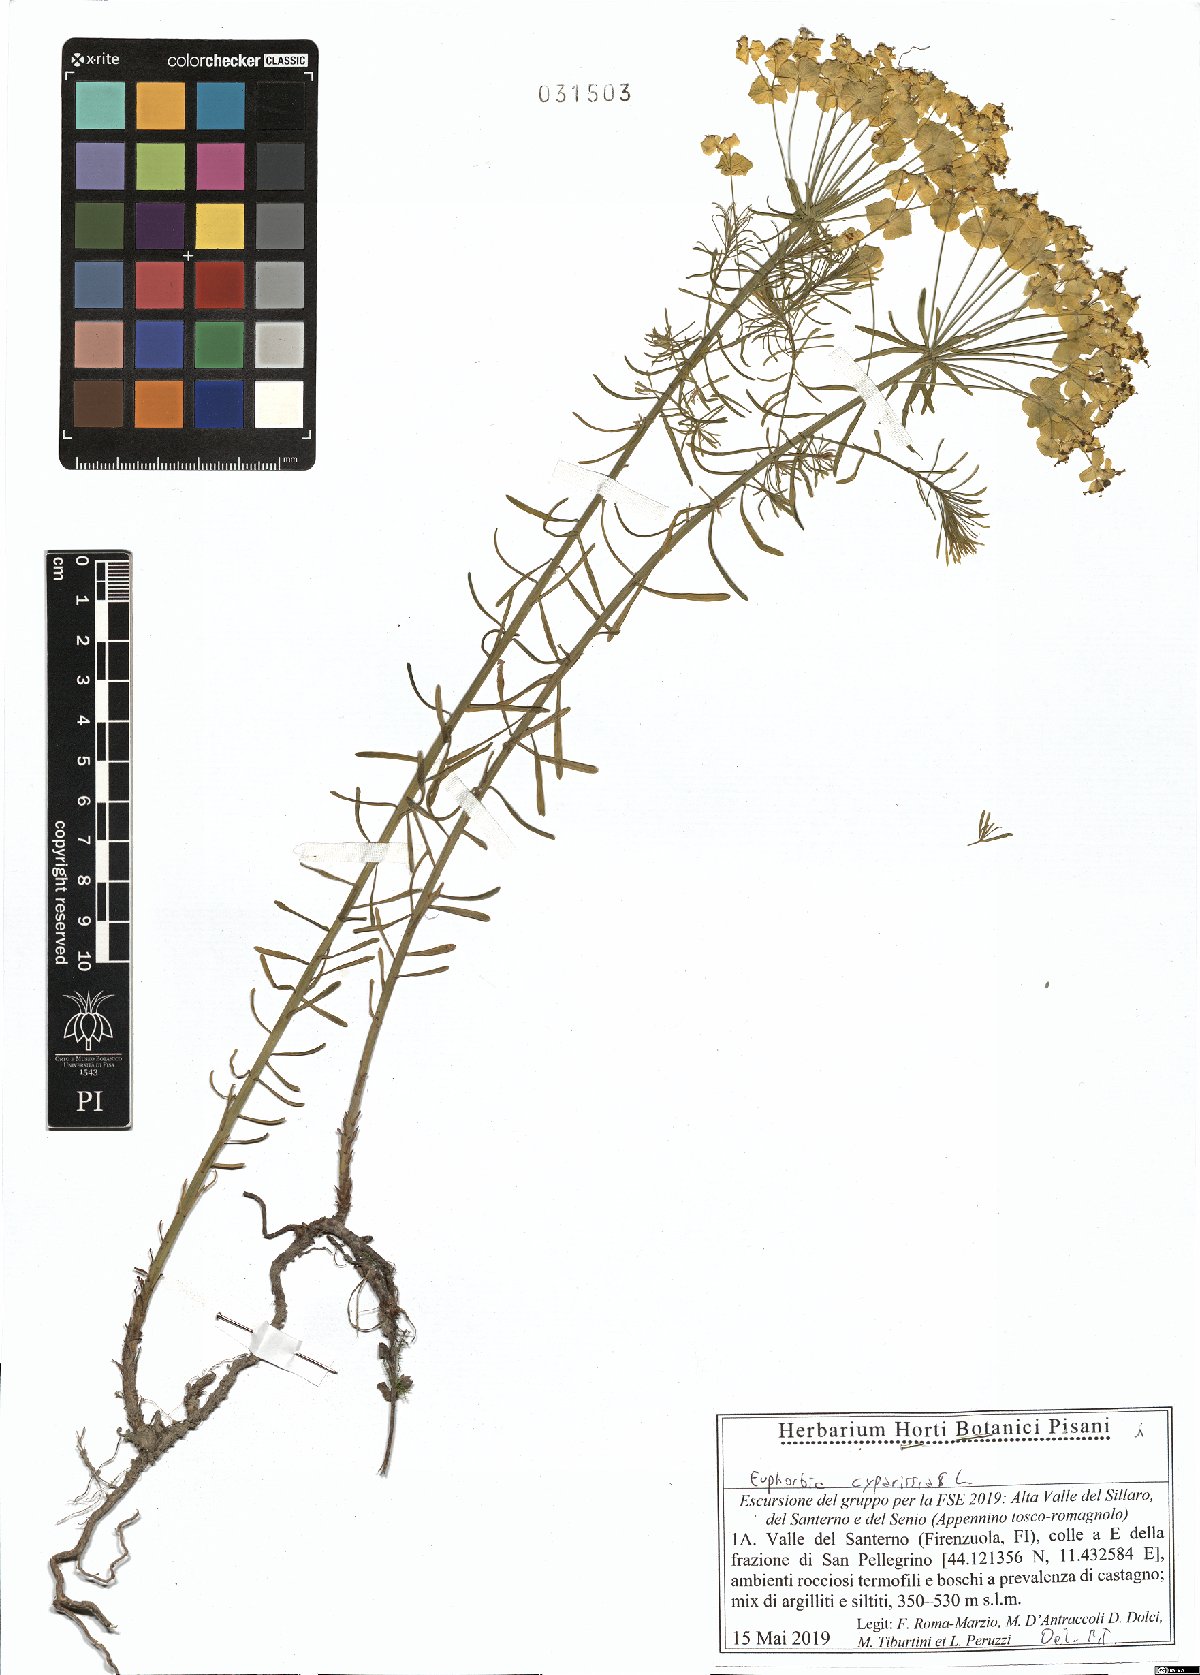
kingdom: Plantae
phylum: Tracheophyta
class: Magnoliopsida
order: Malpighiales
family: Euphorbiaceae
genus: Euphorbia
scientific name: Euphorbia cyparissias
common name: Cypress spurge
